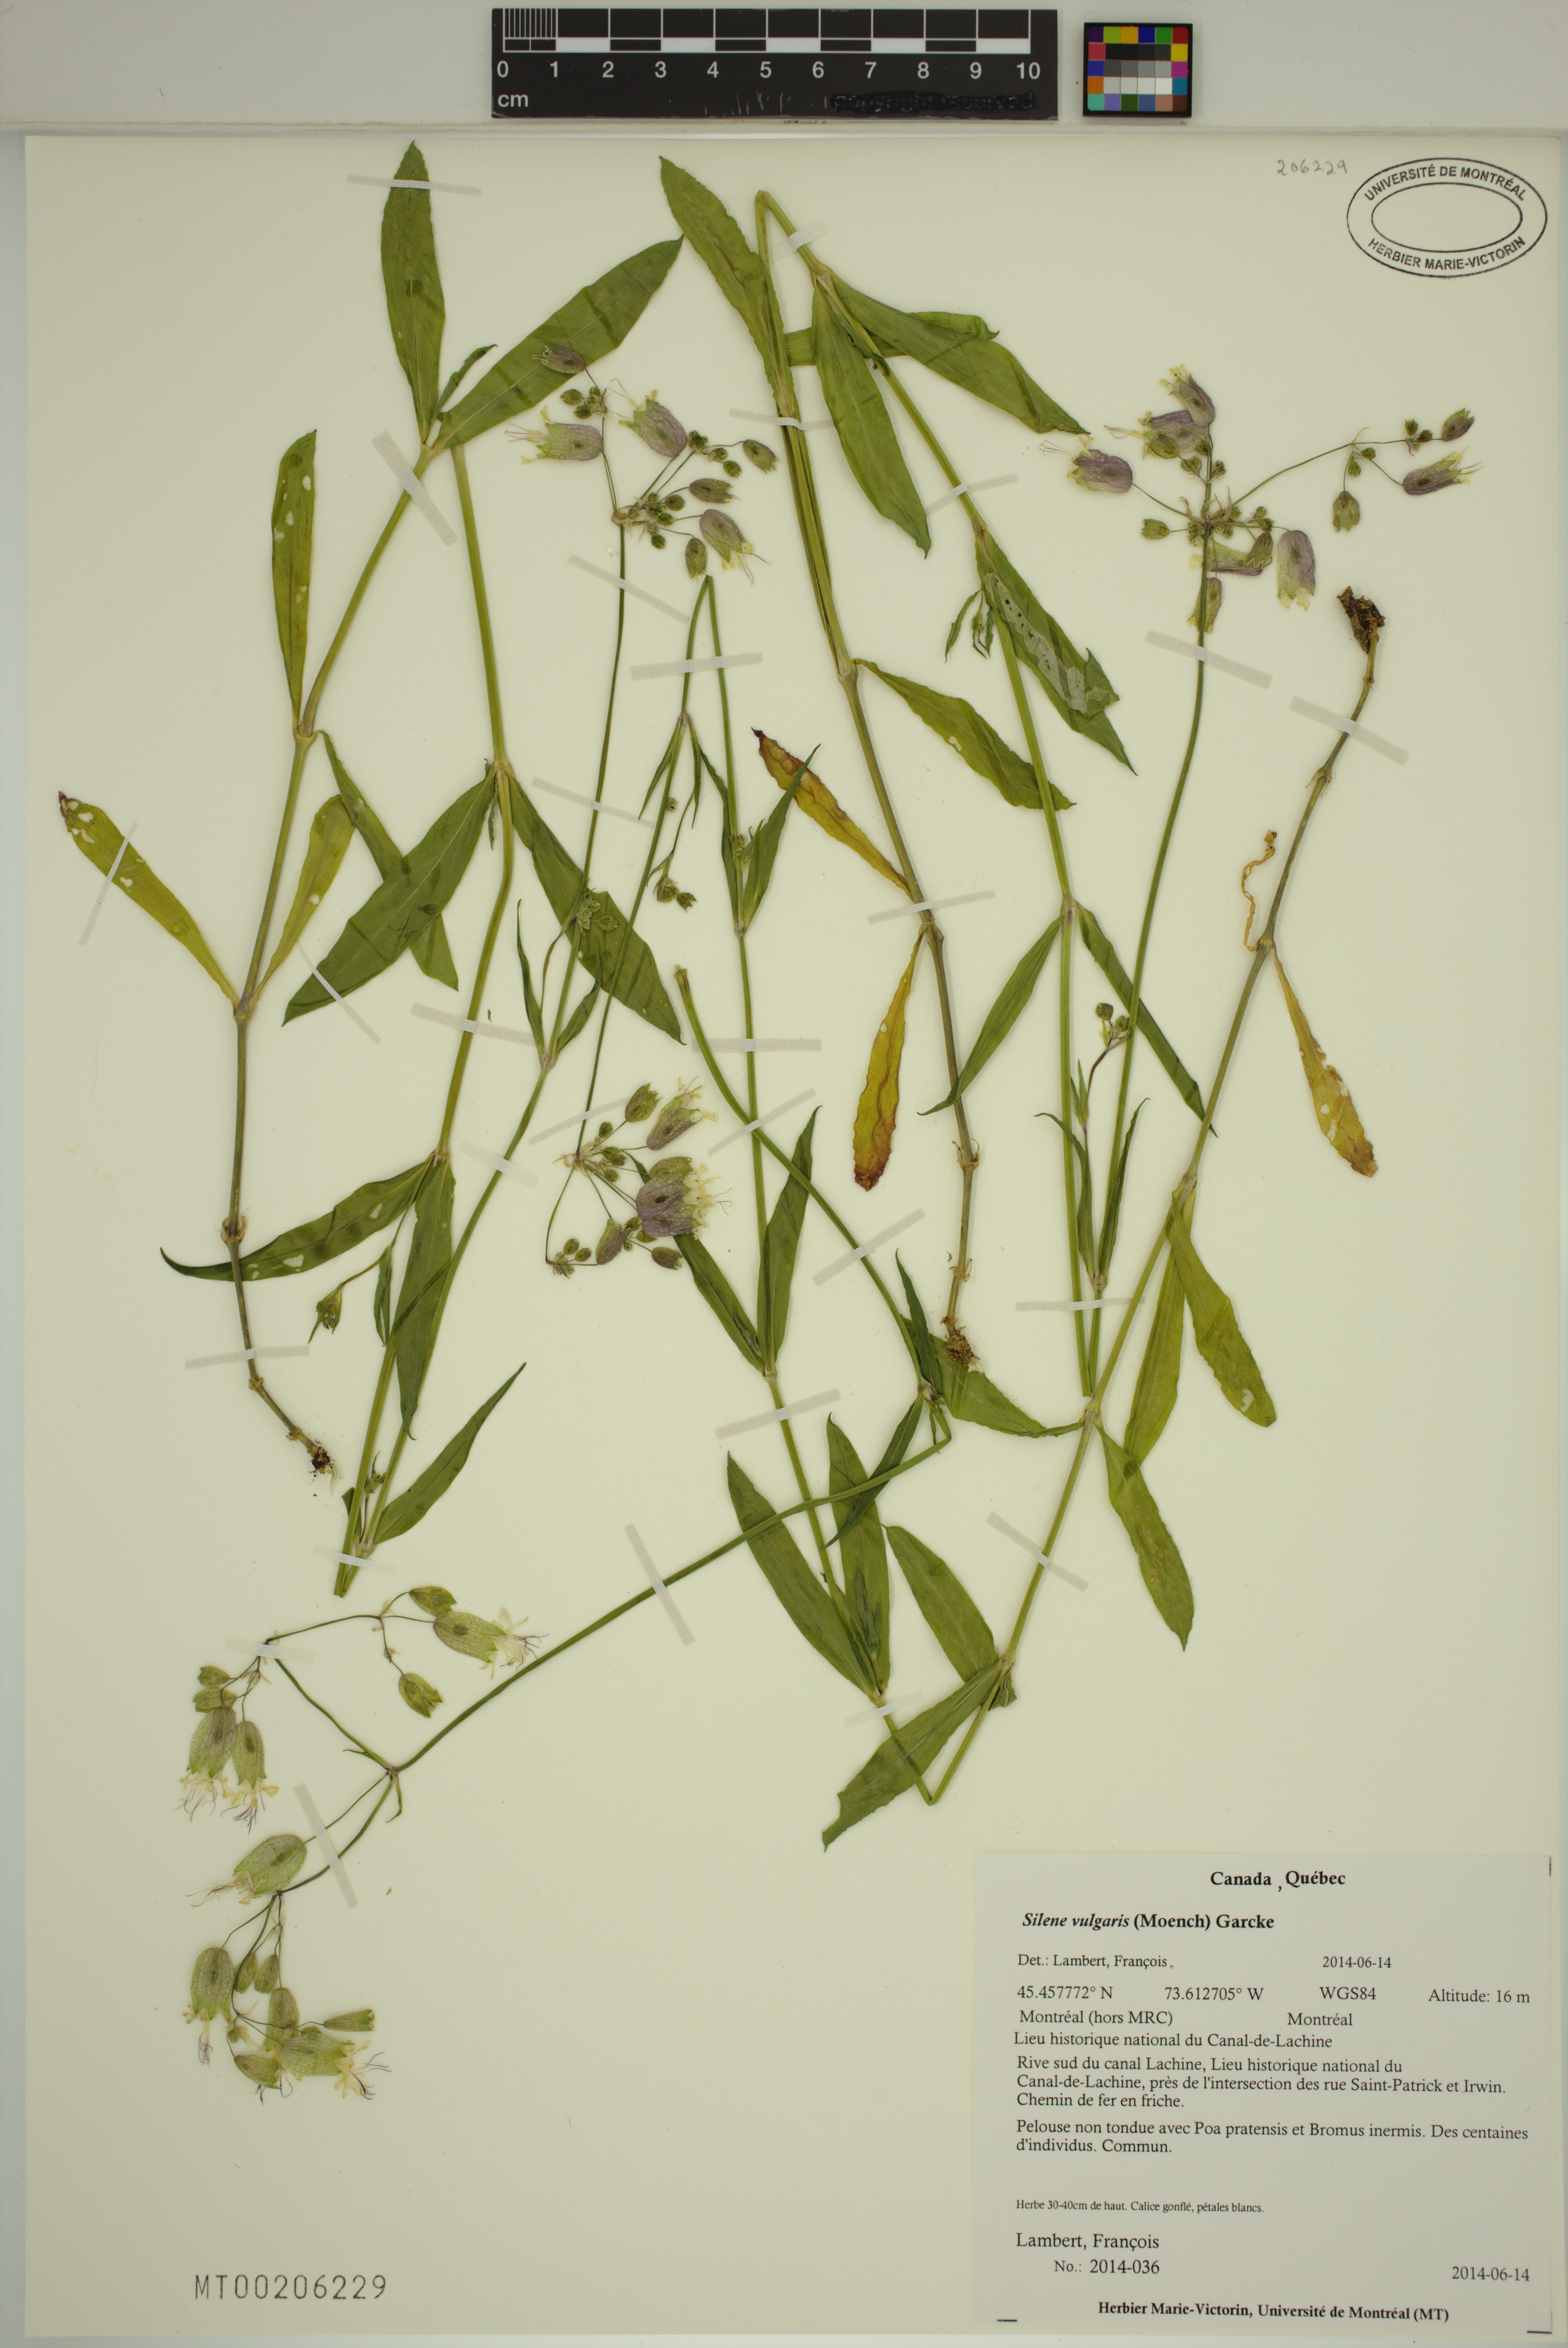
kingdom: Plantae
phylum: Tracheophyta
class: Magnoliopsida
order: Caryophyllales
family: Caryophyllaceae
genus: Silene
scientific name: Silene vulgaris
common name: Bladder campion
